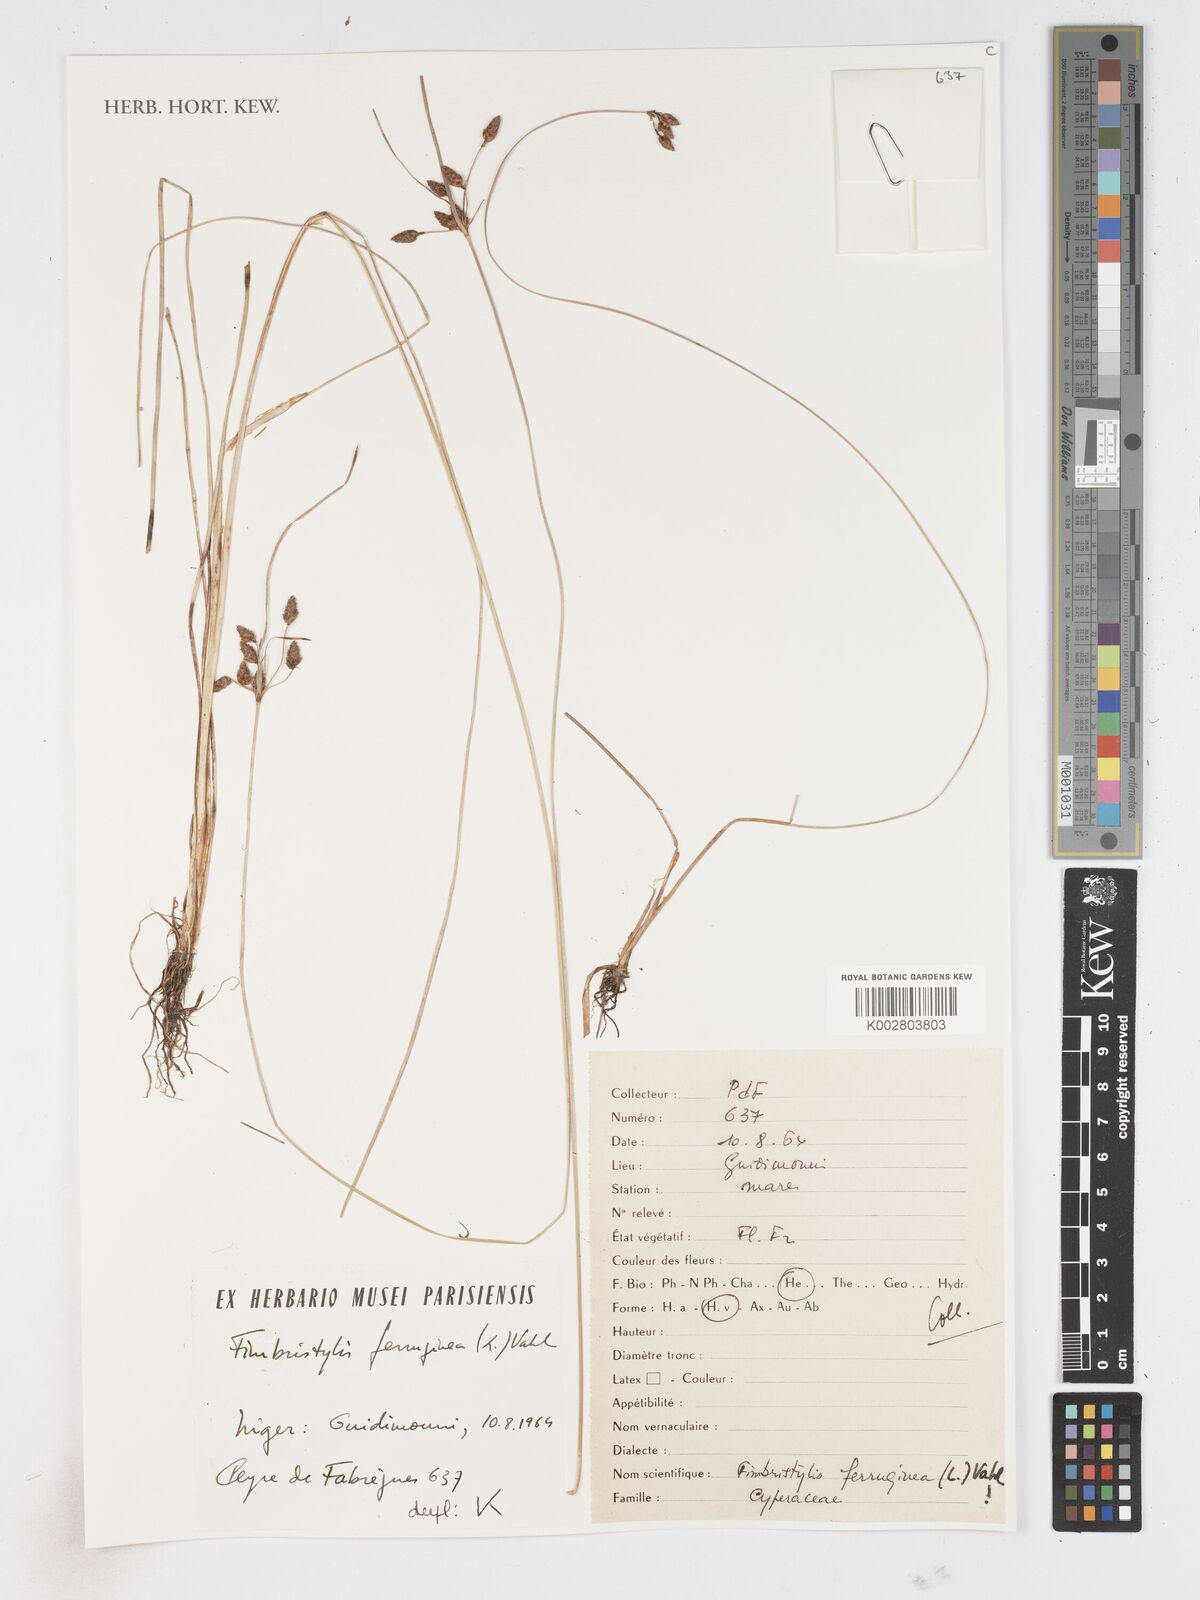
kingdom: Plantae
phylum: Tracheophyta
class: Liliopsida
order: Poales
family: Cyperaceae
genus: Fimbristylis
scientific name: Fimbristylis ferruginea
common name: West indian fimbry
